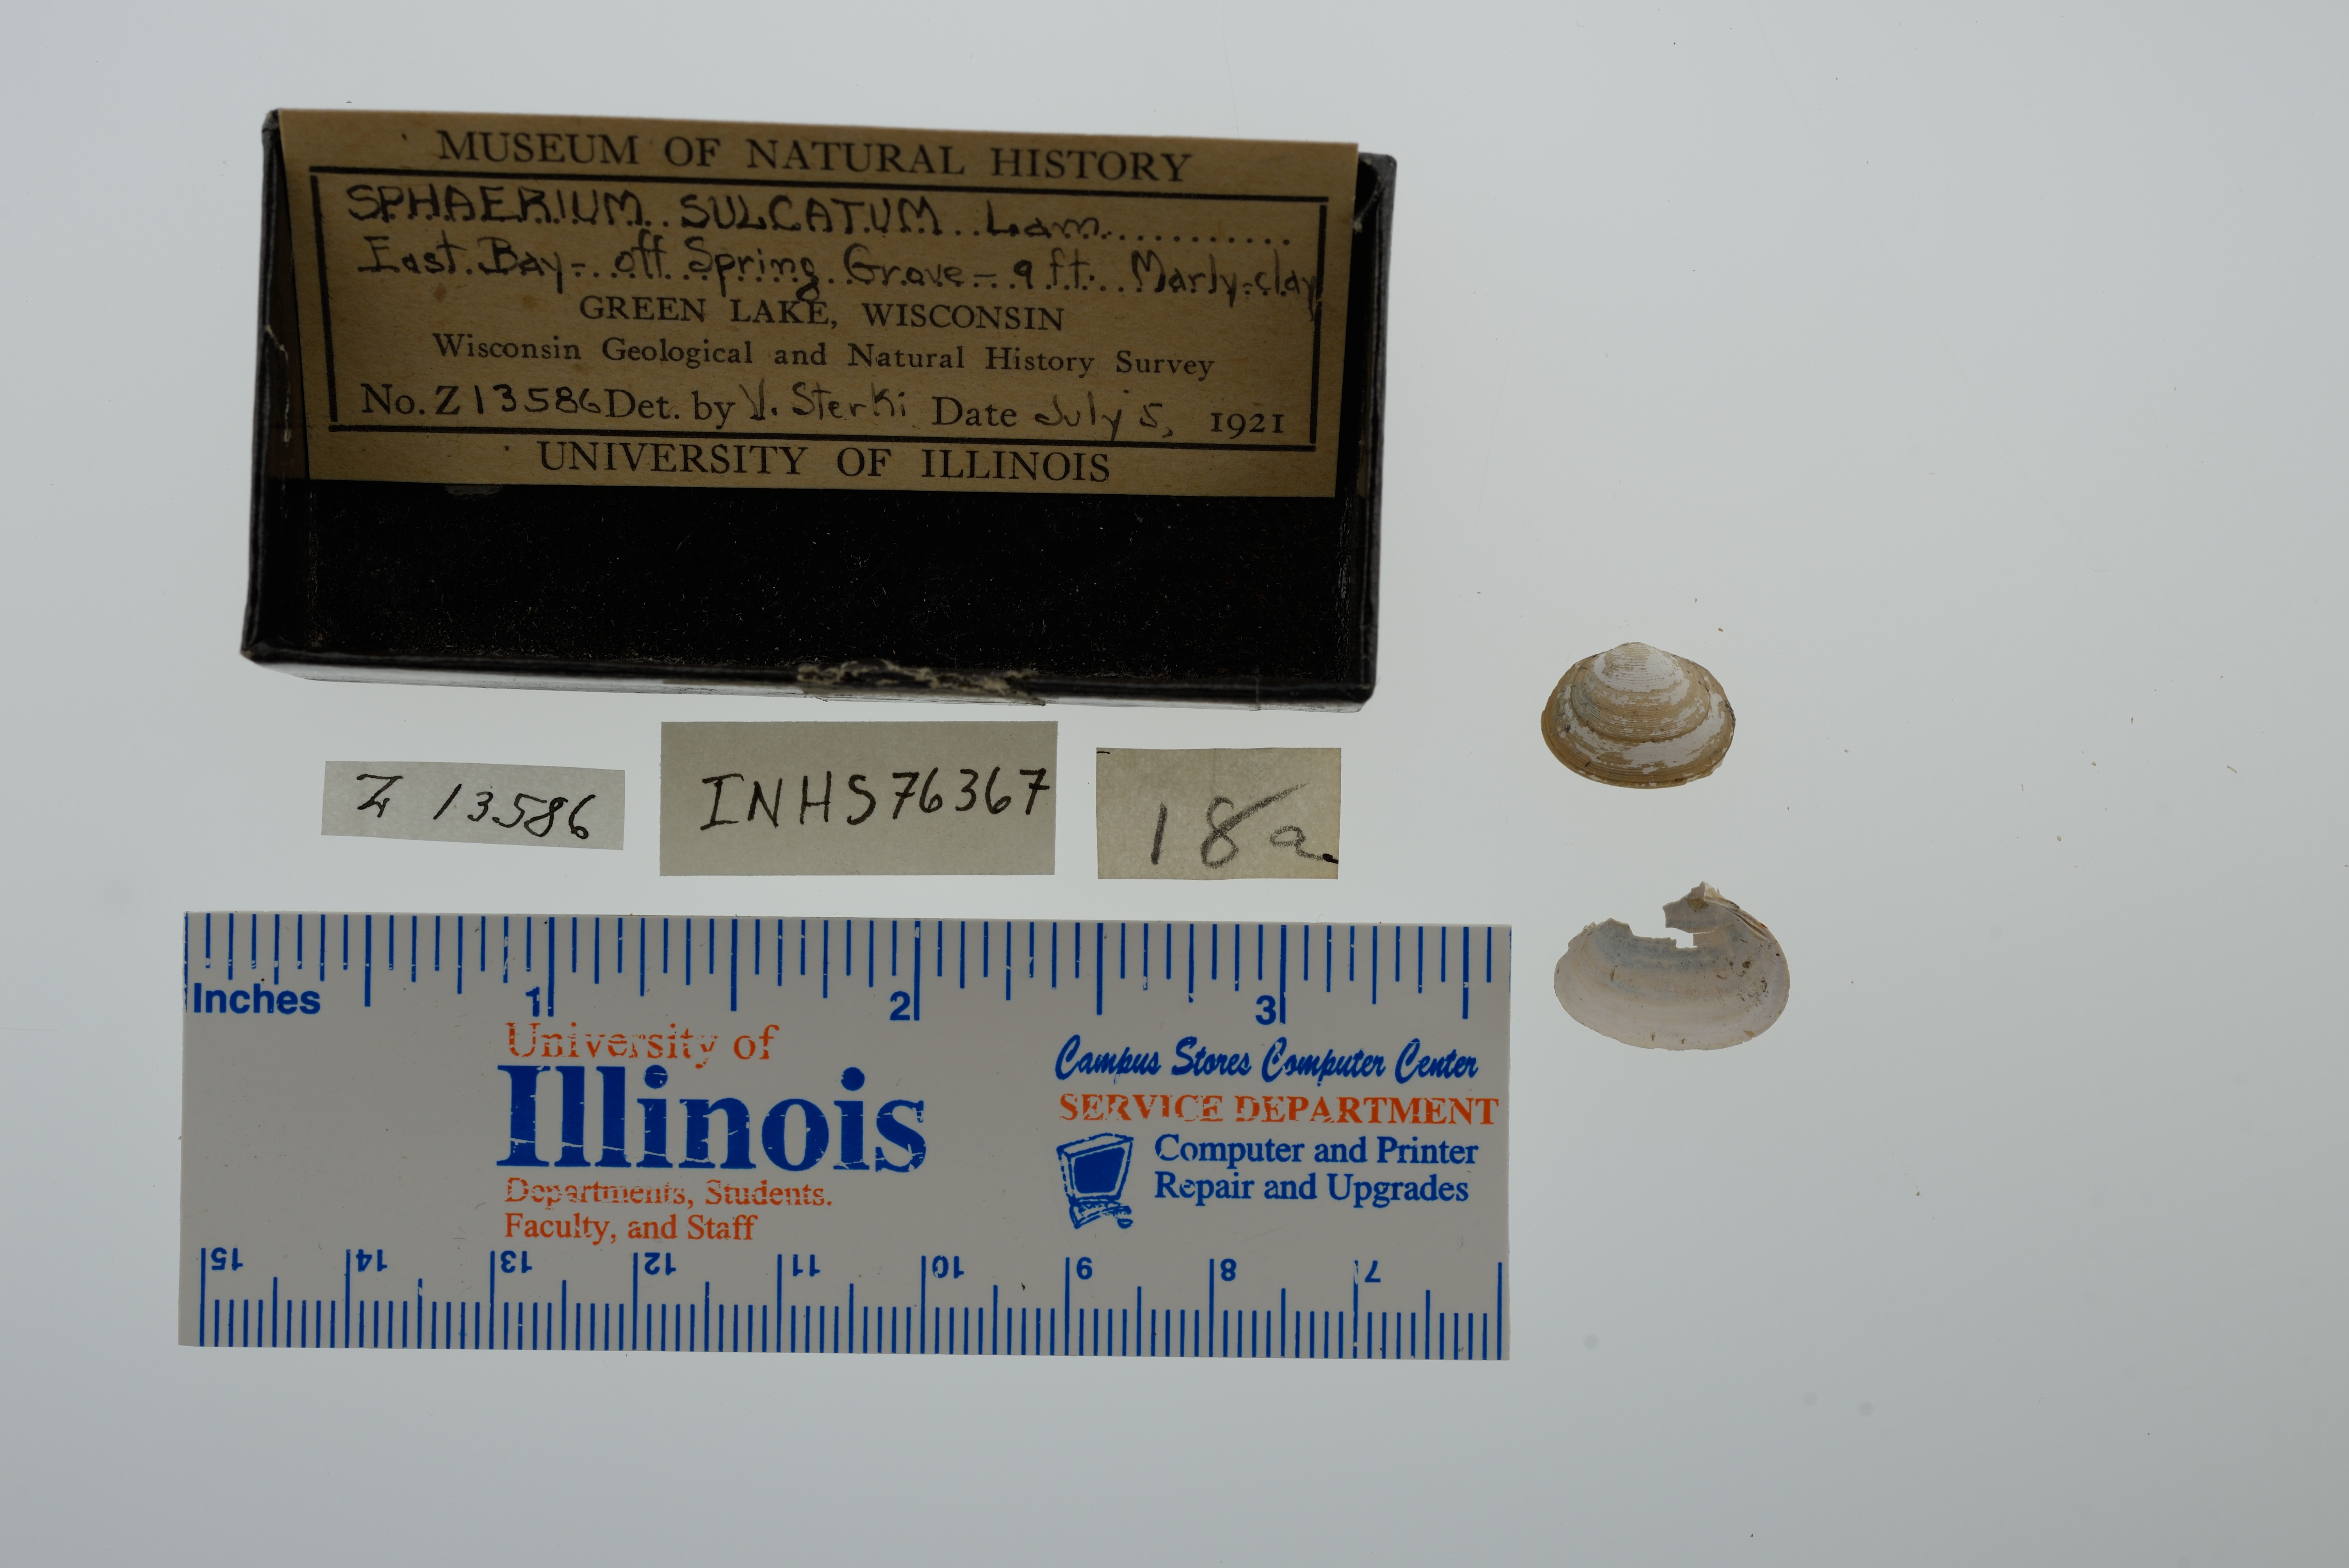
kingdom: Animalia
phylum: Mollusca
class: Bivalvia
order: Sphaeriida
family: Sphaeriidae
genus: Sphaerium
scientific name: Sphaerium simile
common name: Grooved fingernailclam
